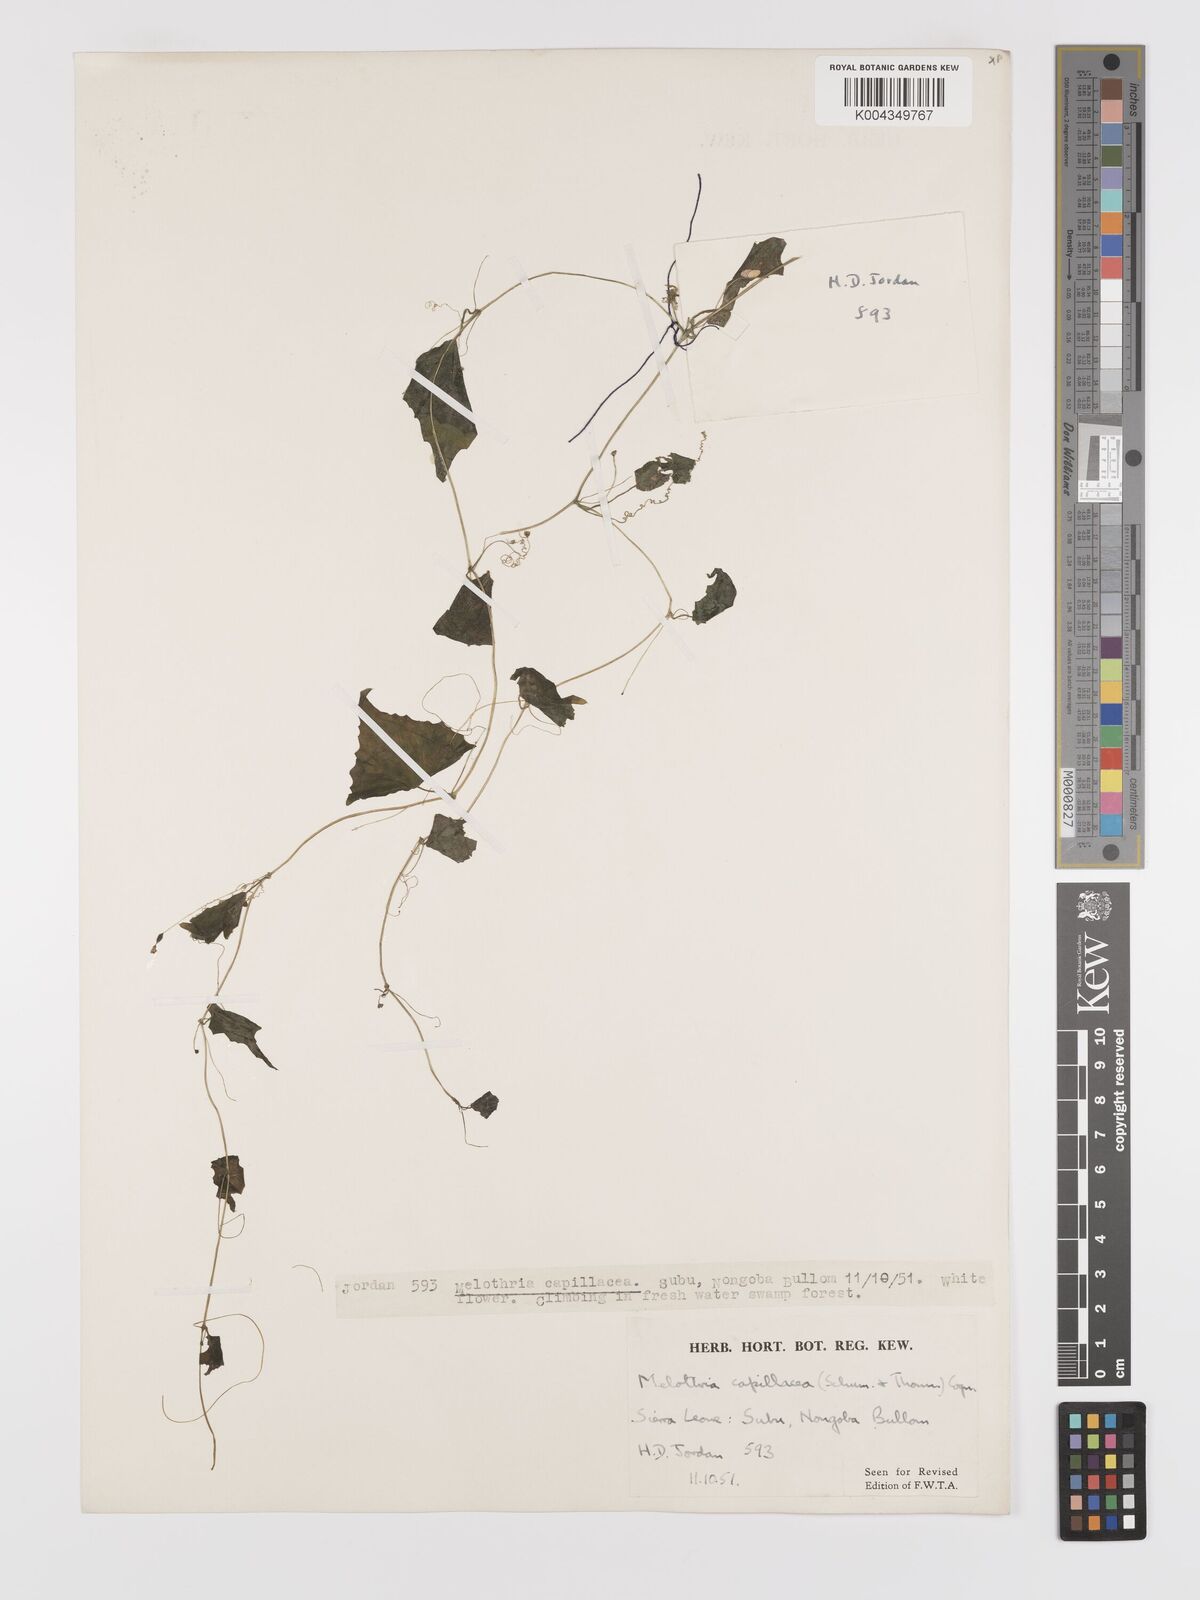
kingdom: Plantae
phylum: Tracheophyta
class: Magnoliopsida
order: Cucurbitales
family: Cucurbitaceae
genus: Zehneria
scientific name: Zehneria capillacea
